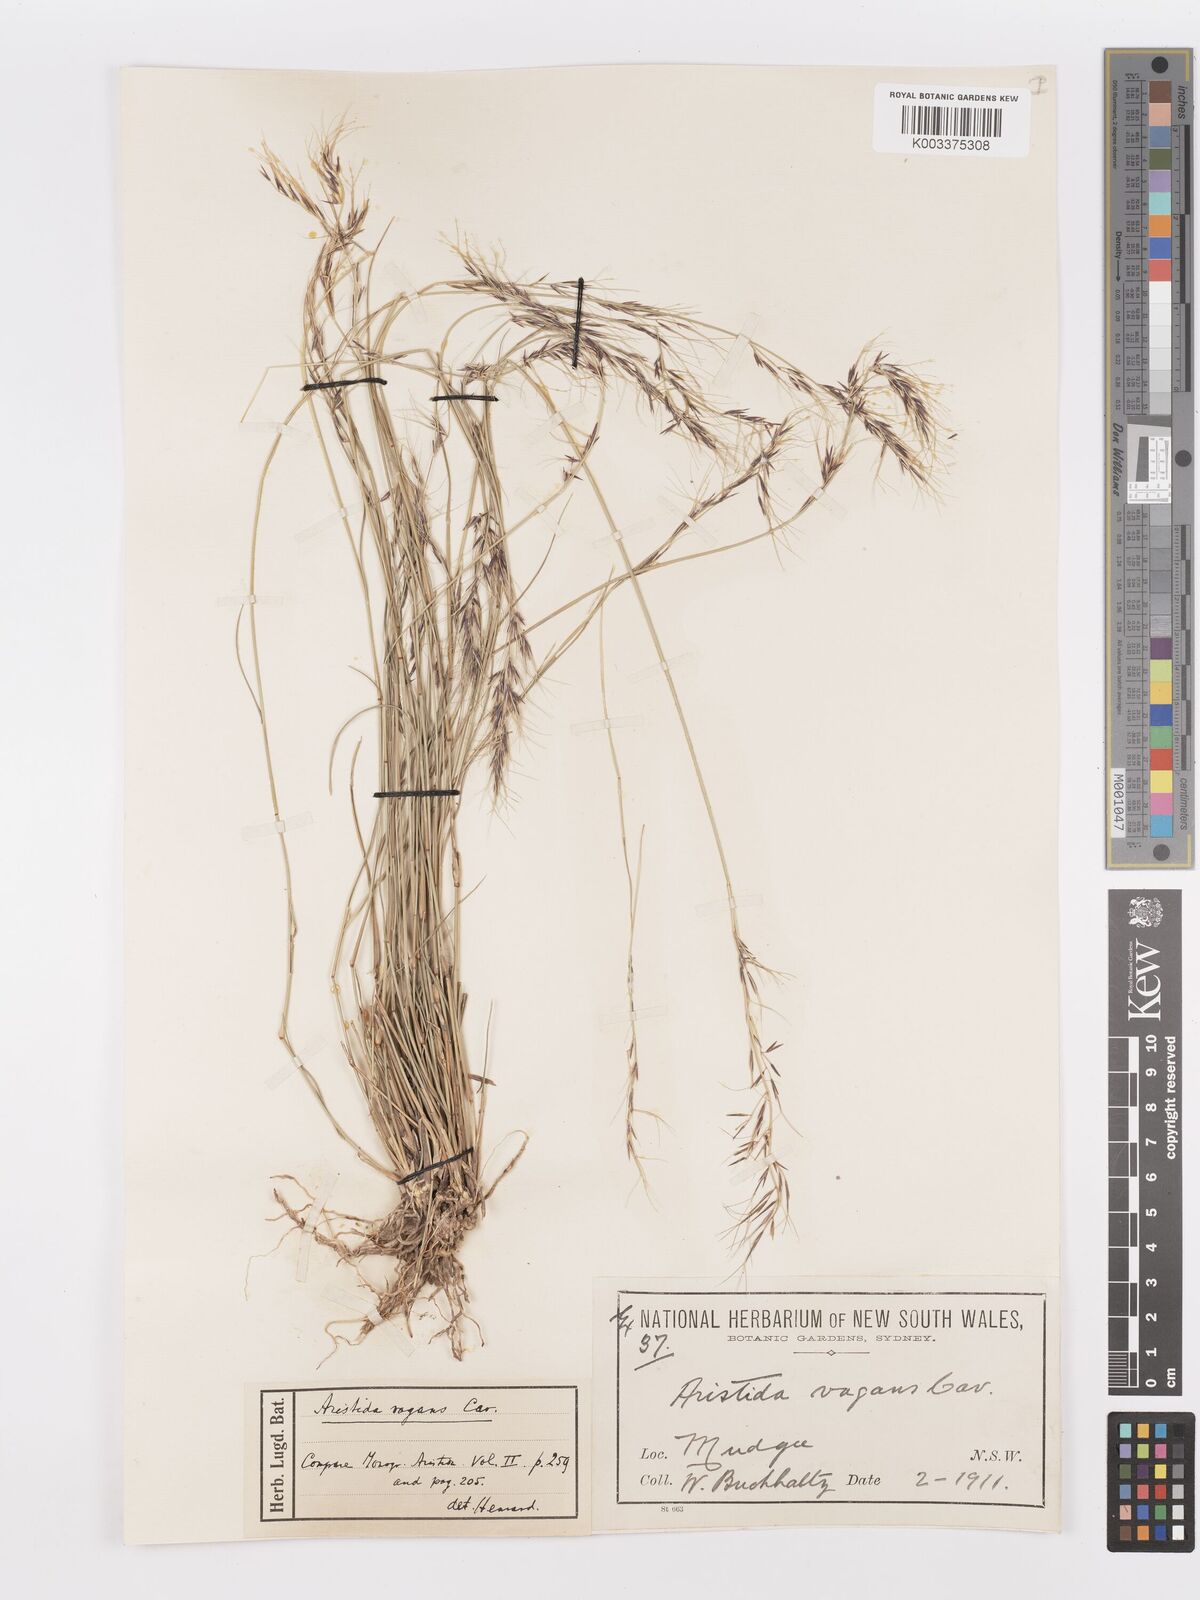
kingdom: Plantae
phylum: Tracheophyta
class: Liliopsida
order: Poales
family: Poaceae
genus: Aristida
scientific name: Aristida vagans
